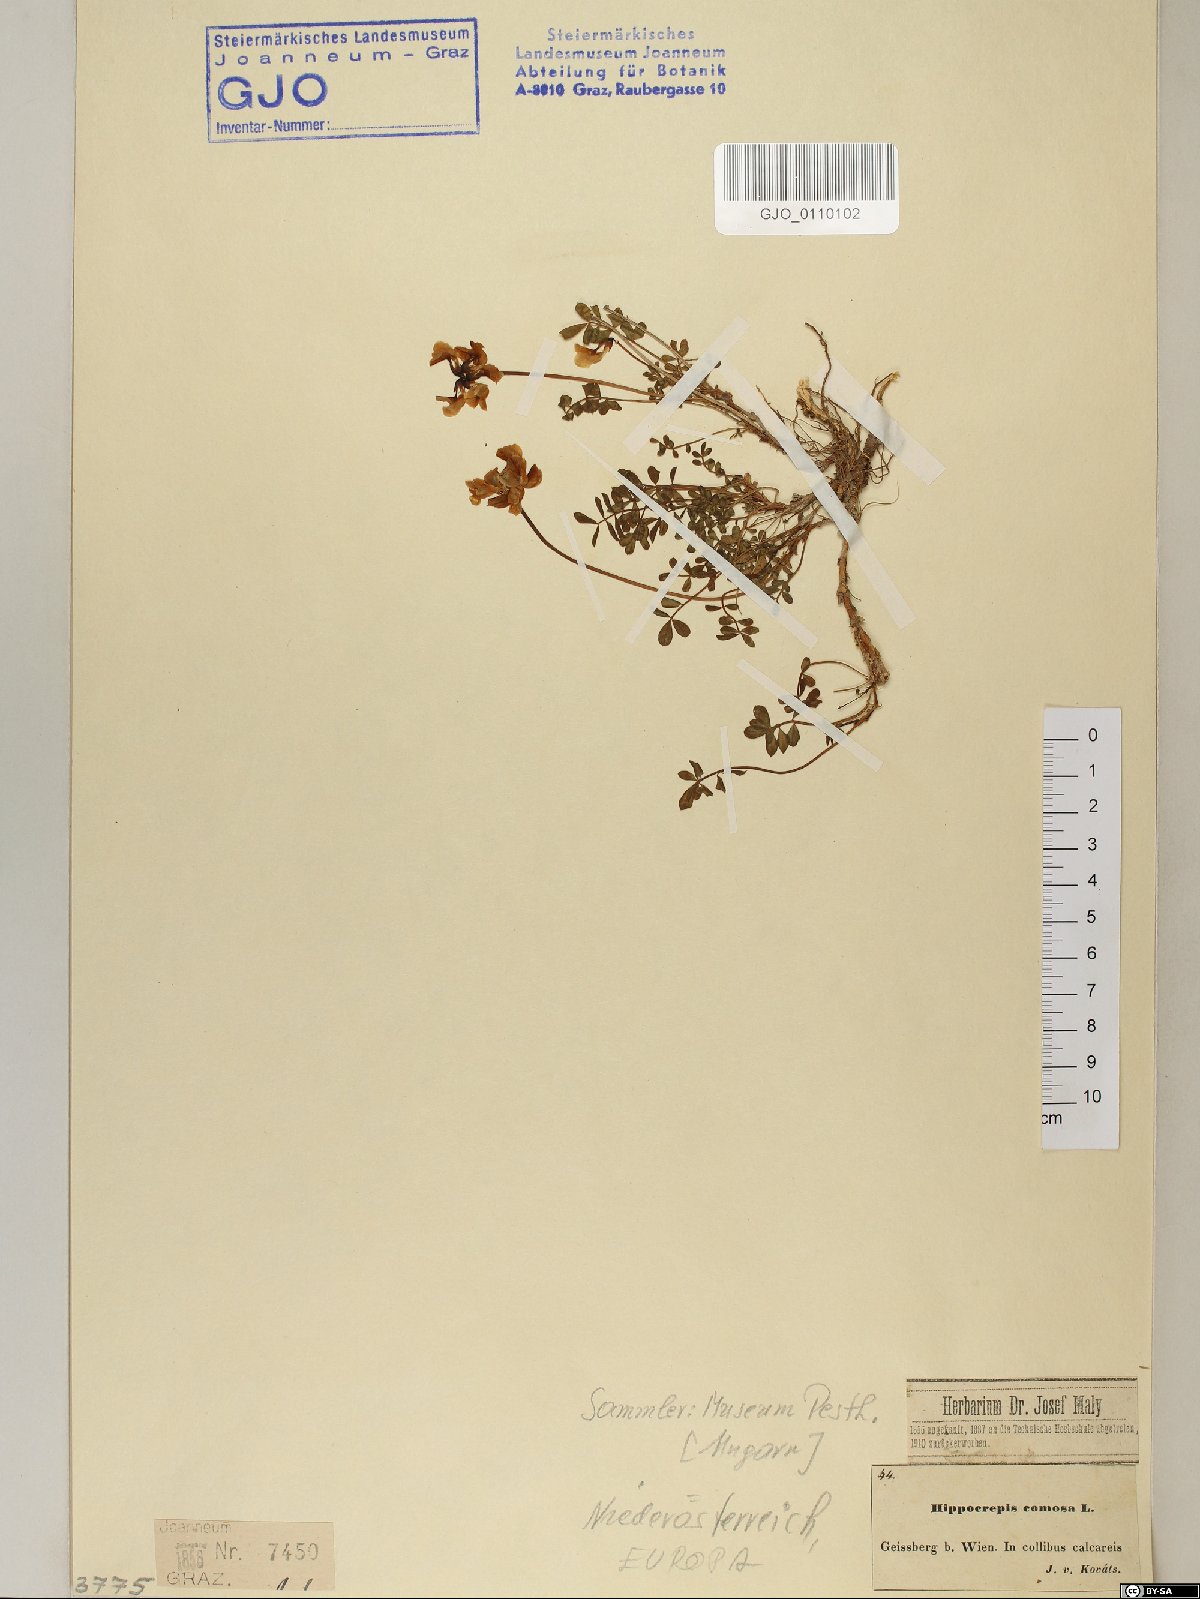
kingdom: Plantae
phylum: Tracheophyta
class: Magnoliopsida
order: Fabales
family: Fabaceae
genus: Hippocrepis
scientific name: Hippocrepis comosa
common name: Horseshoe vetch
